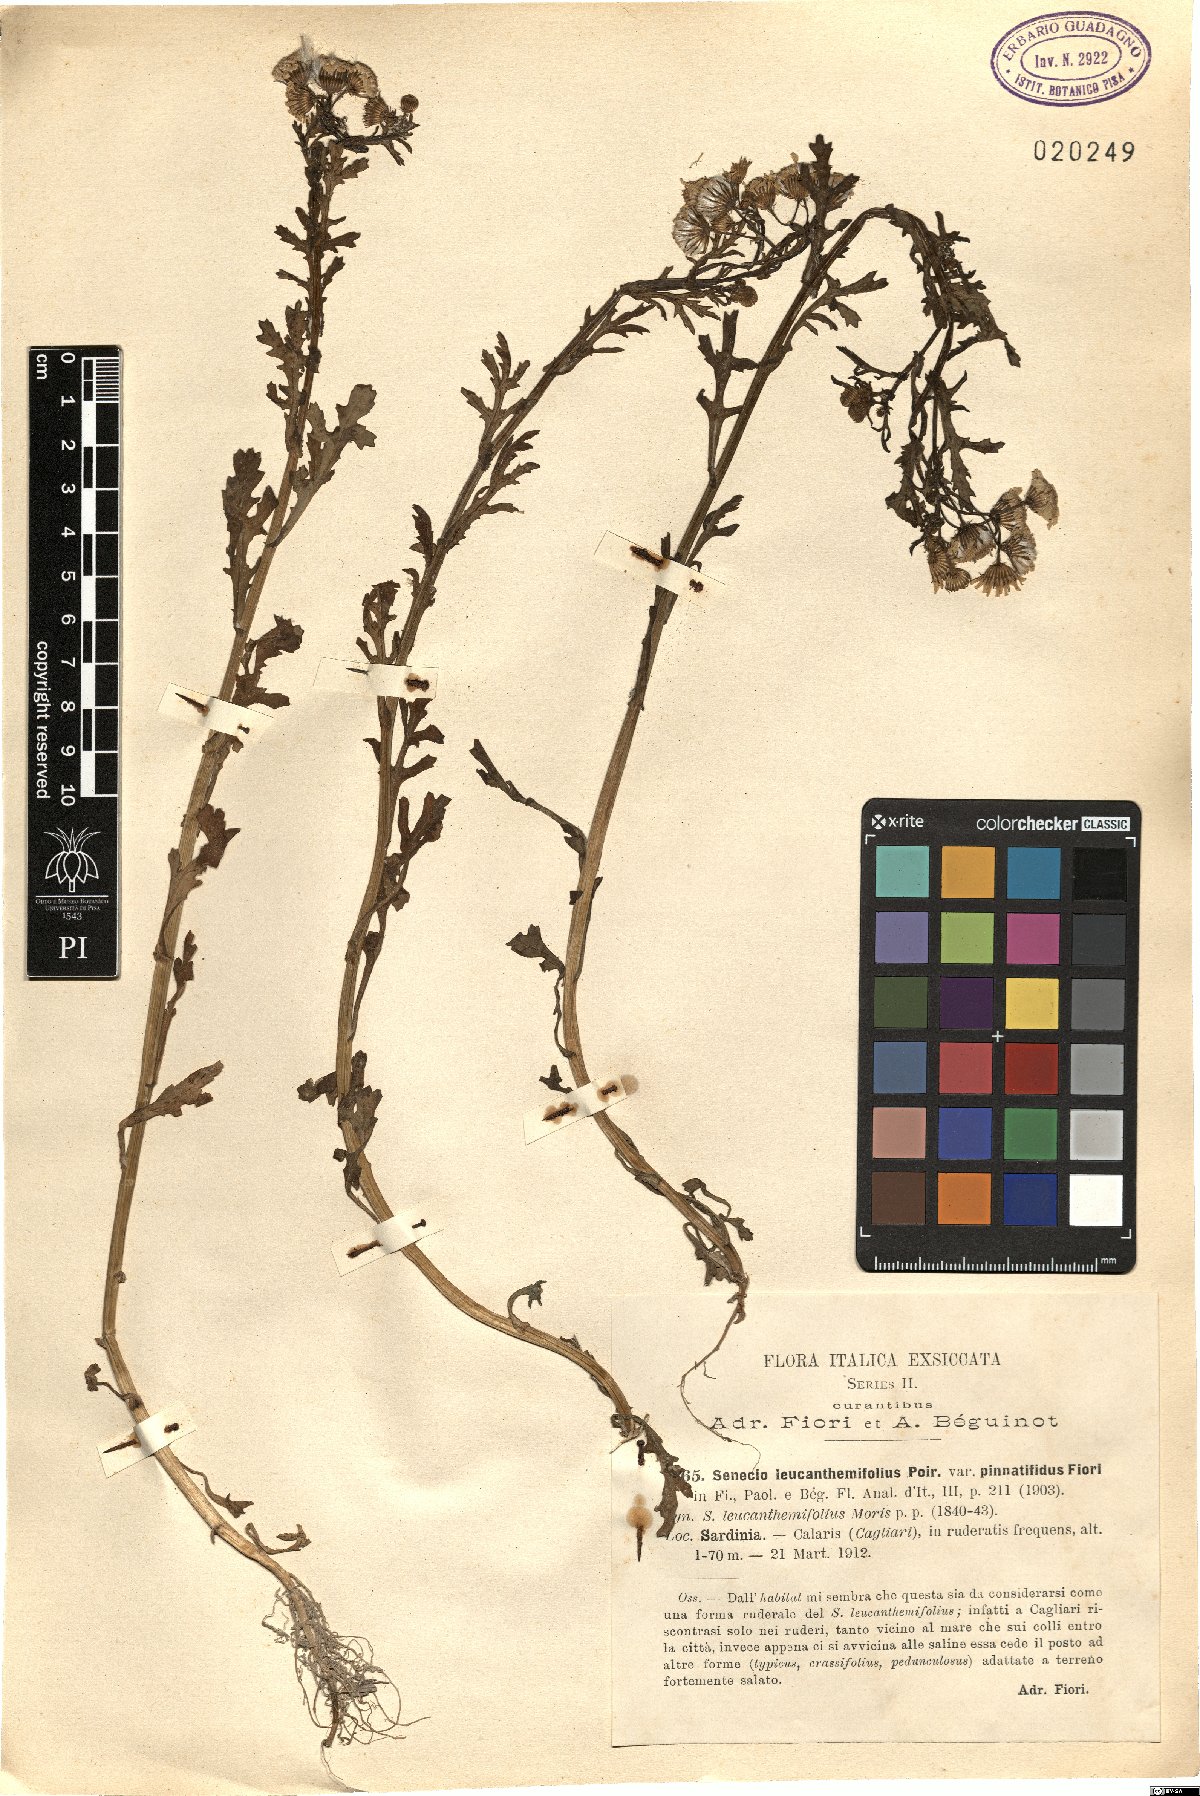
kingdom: Plantae
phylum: Tracheophyta
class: Magnoliopsida
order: Asterales
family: Asteraceae
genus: Senecio
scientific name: Senecio leucanthemifolius
